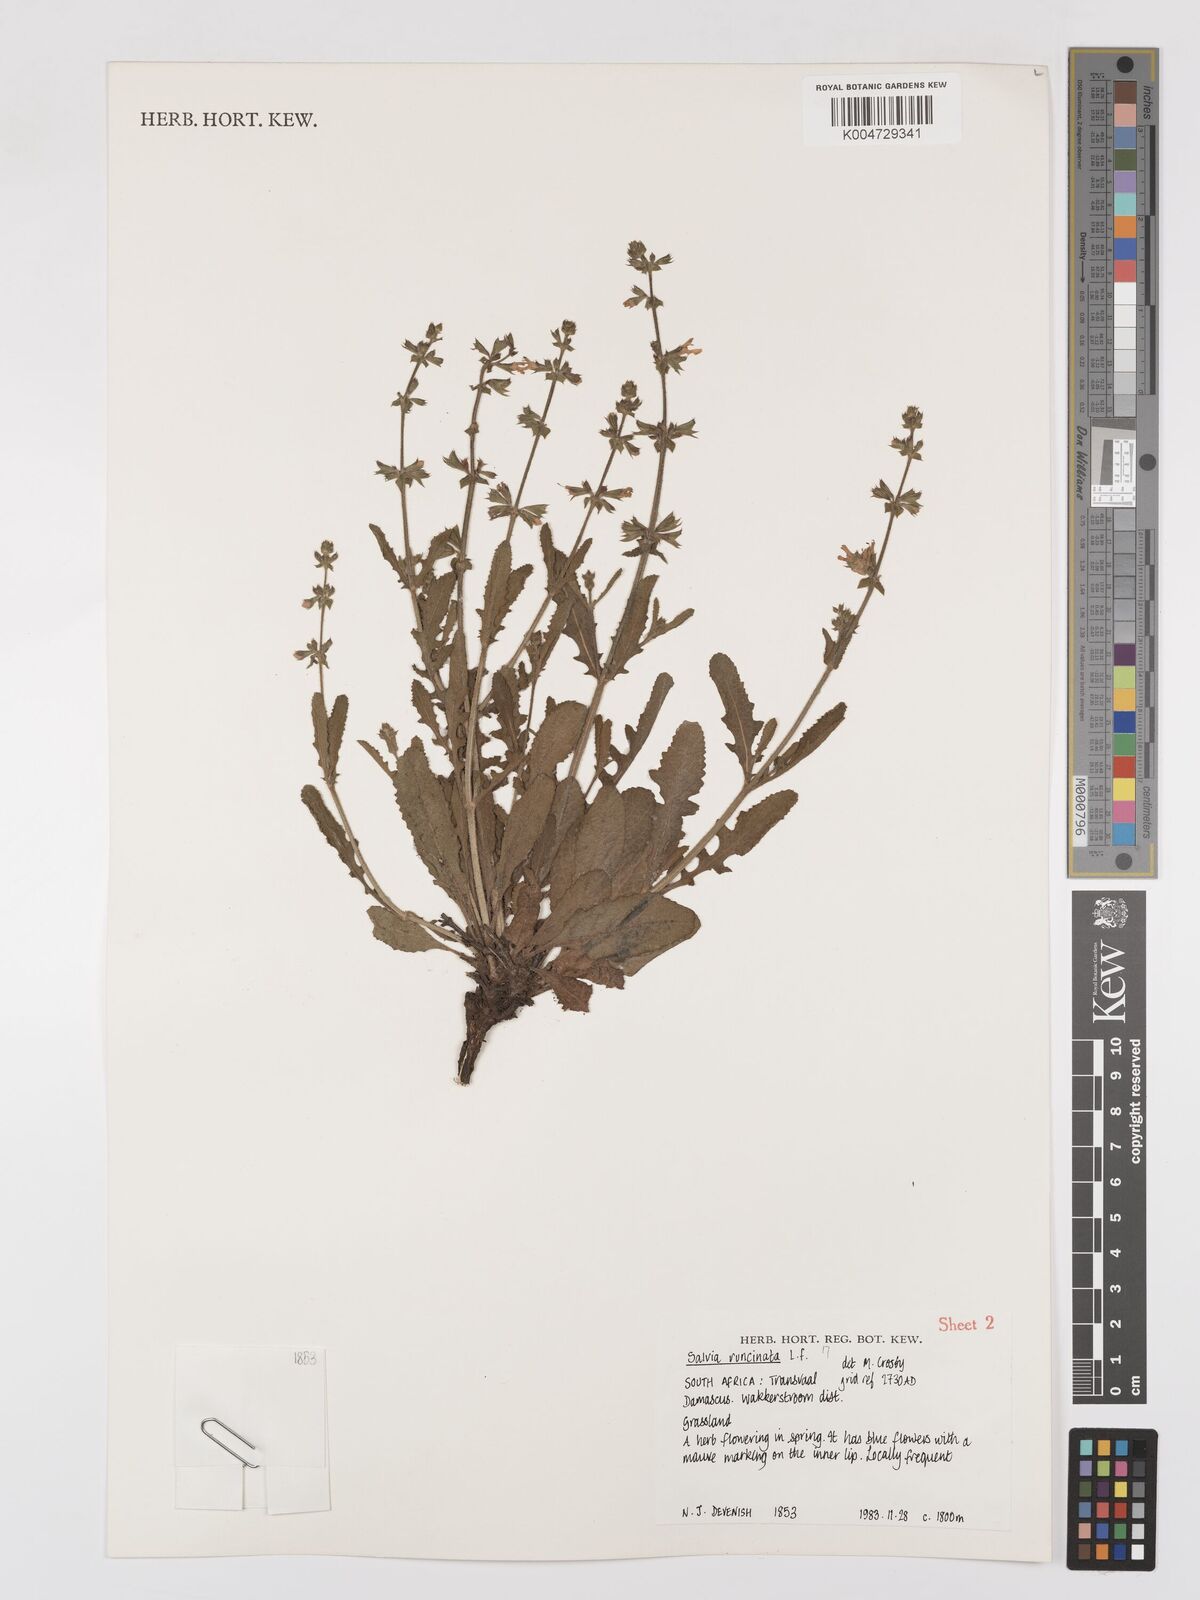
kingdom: Plantae
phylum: Tracheophyta
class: Magnoliopsida
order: Lamiales
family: Lamiaceae
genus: Salvia
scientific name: Salvia runcinata
